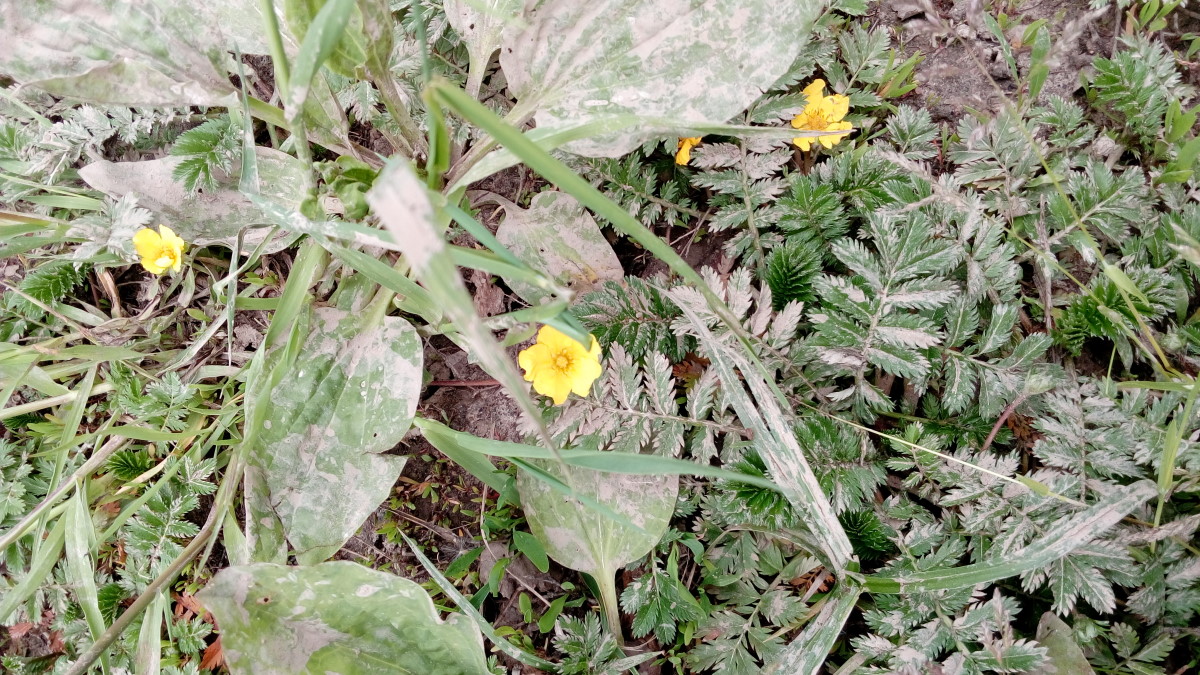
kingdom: Plantae
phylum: Tracheophyta
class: Magnoliopsida
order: Rosales
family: Rosaceae
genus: Argentina
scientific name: Argentina anserina
